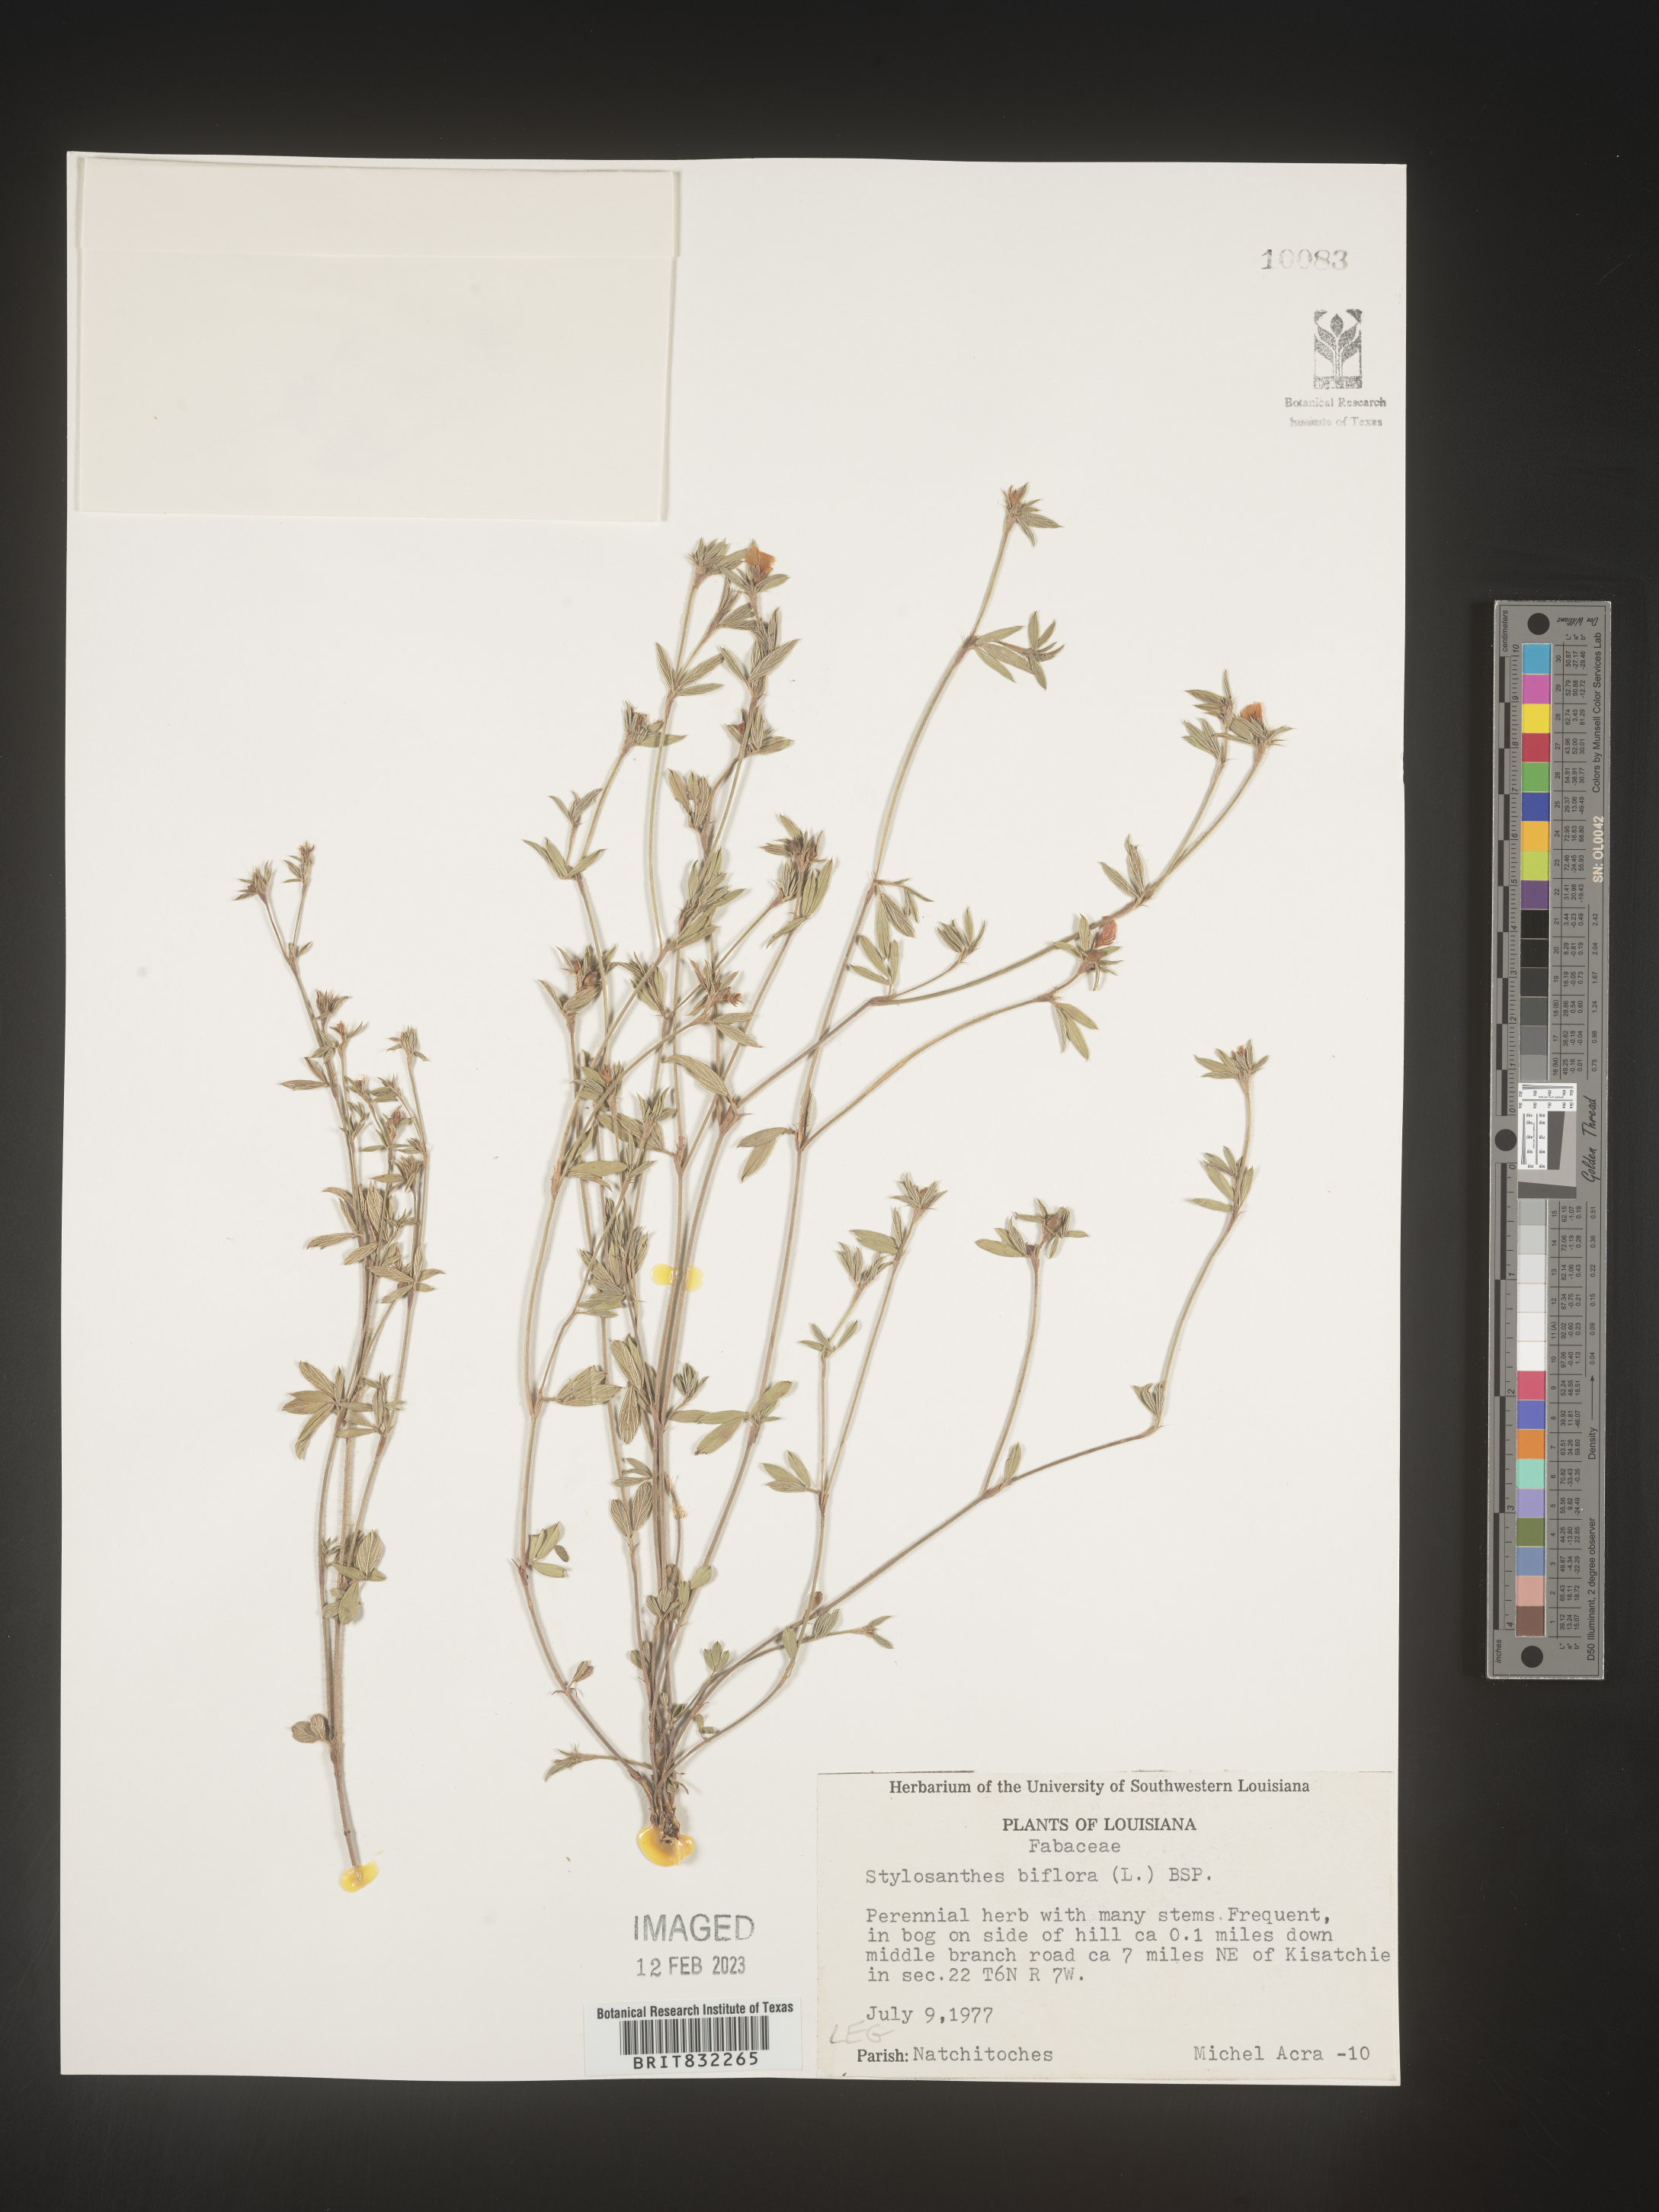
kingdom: Plantae
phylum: Tracheophyta
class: Magnoliopsida
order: Fabales
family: Fabaceae
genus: Stylosanthes
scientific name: Stylosanthes biflora
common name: Two-flower pencil-flower
